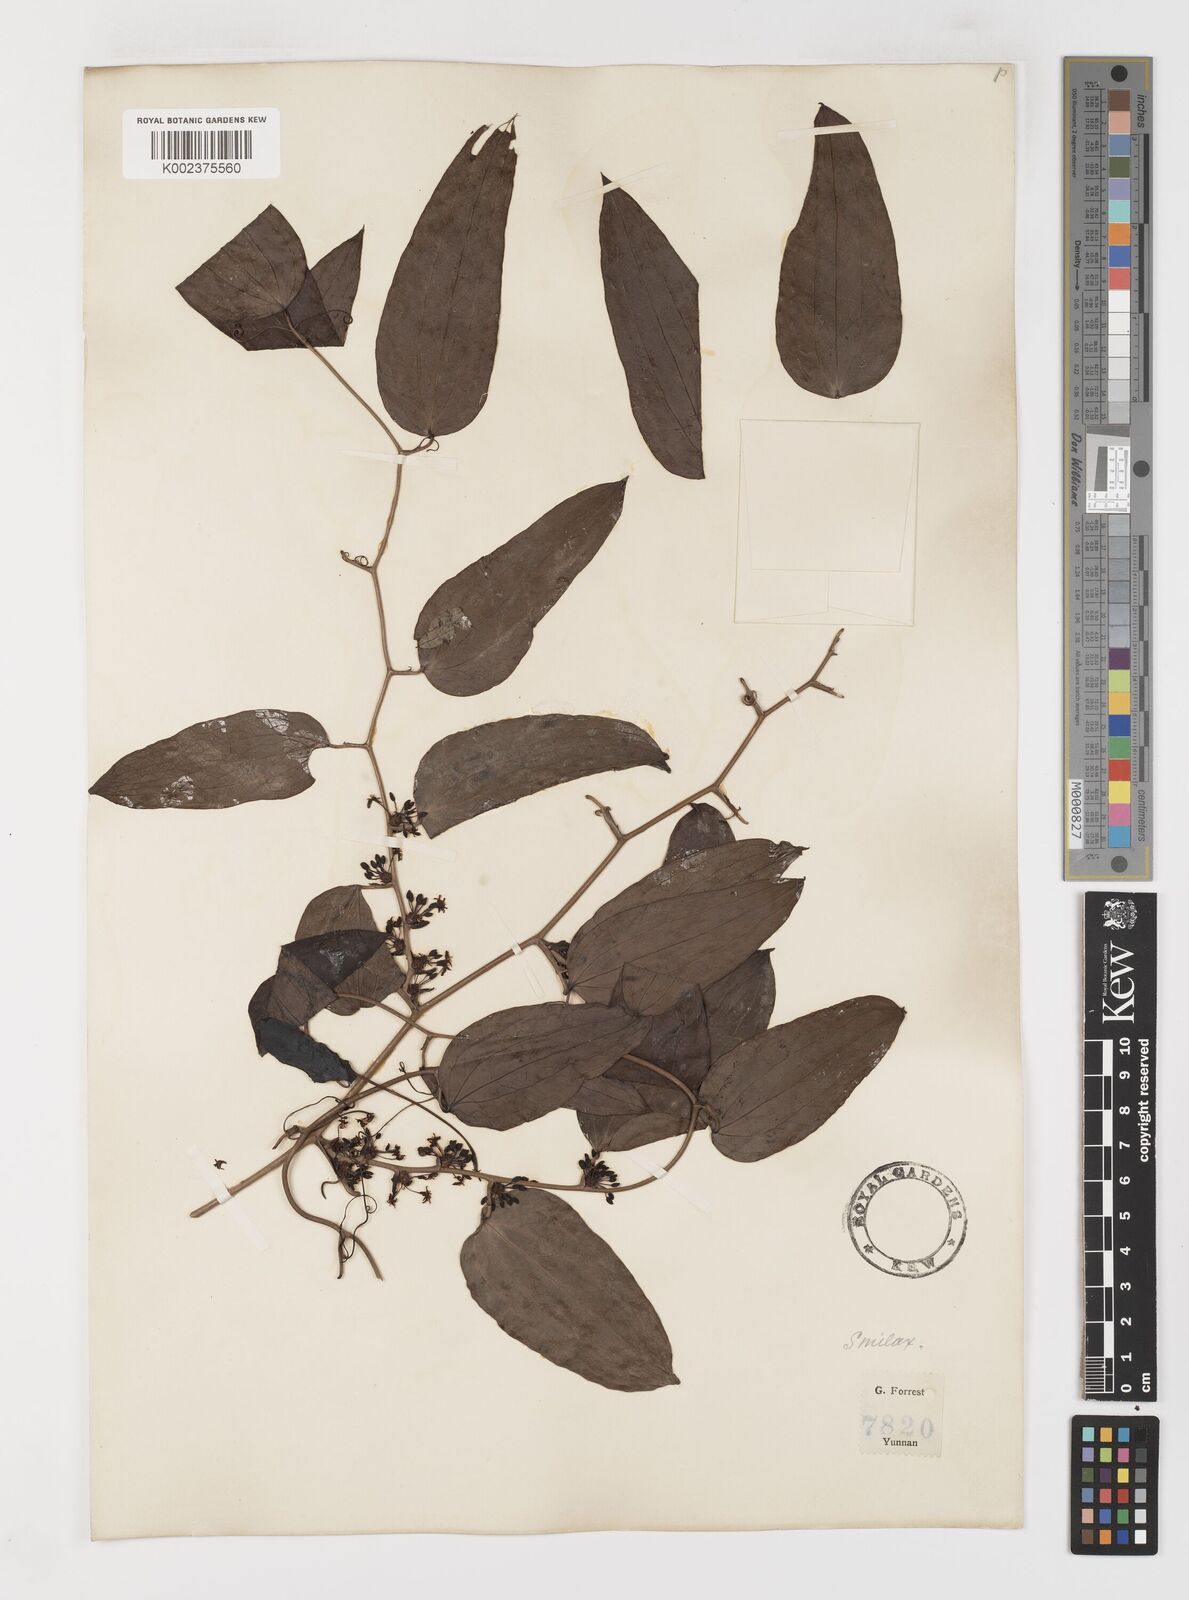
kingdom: Plantae
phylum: Tracheophyta
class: Liliopsida
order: Liliales
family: Smilacaceae
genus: Smilax
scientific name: Smilax lanceifolia
